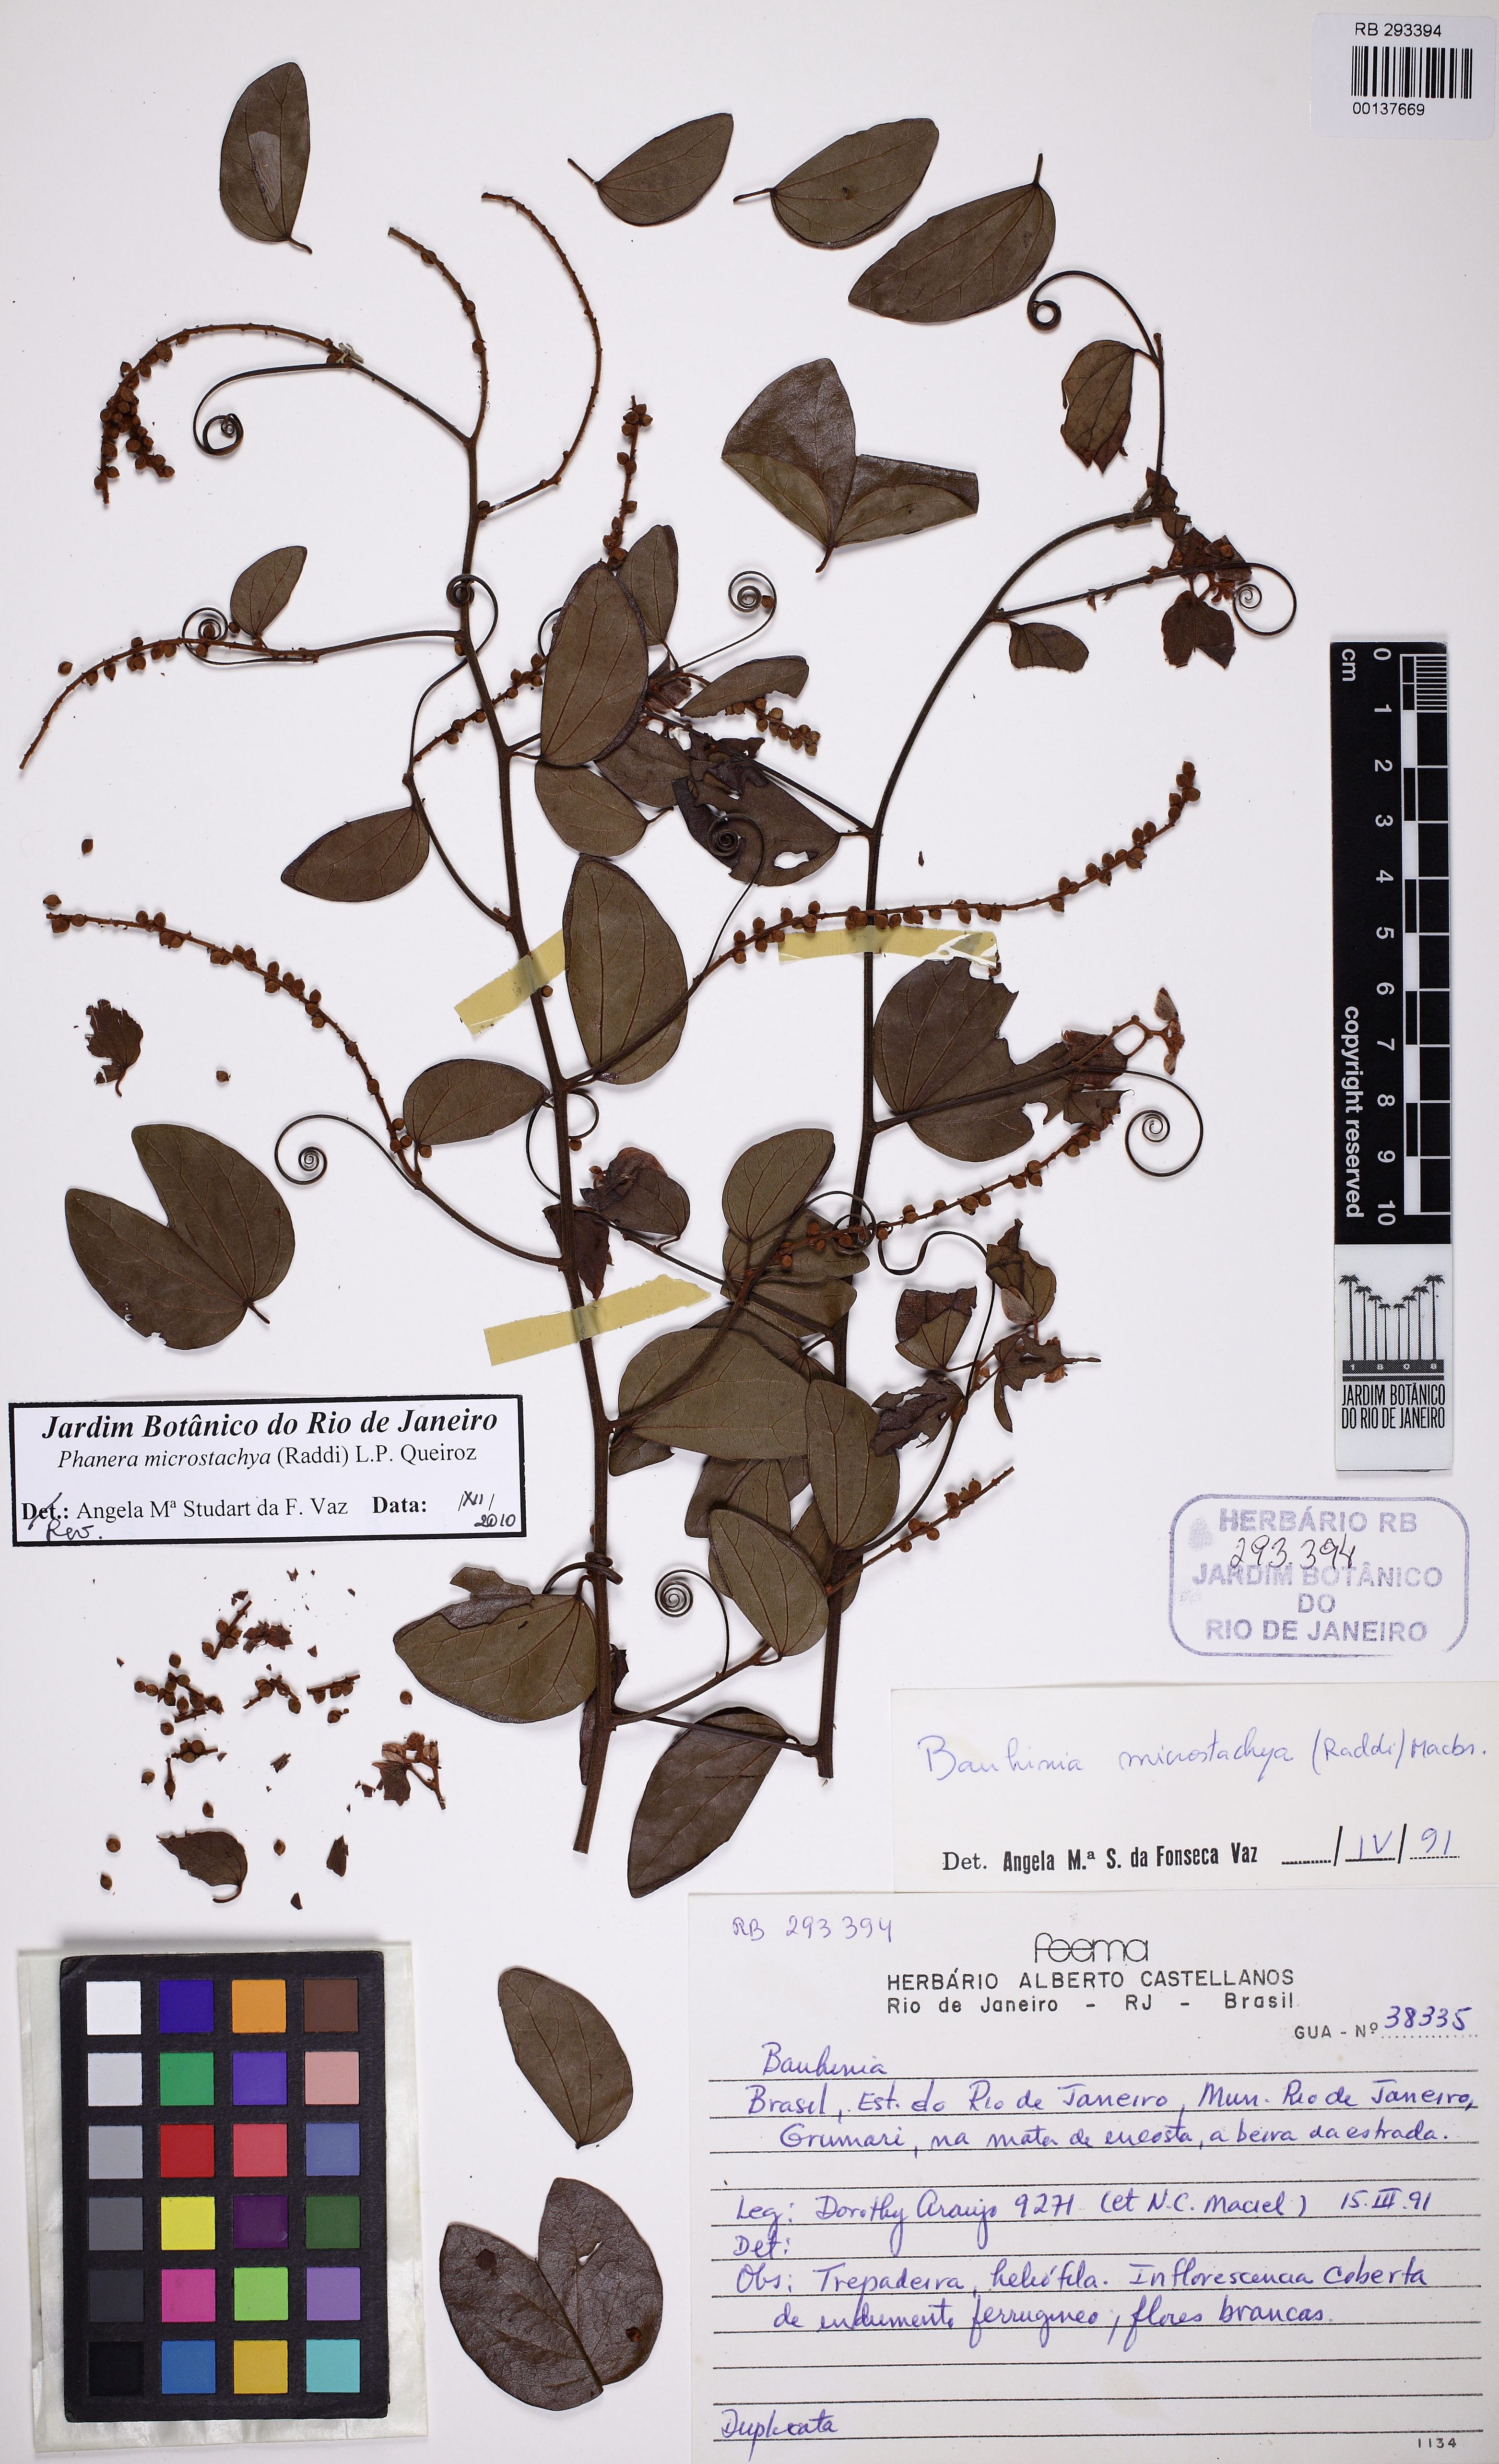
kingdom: Plantae
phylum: Tracheophyta
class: Magnoliopsida
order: Fabales
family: Fabaceae
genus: Schnella
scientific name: Schnella microstachya
